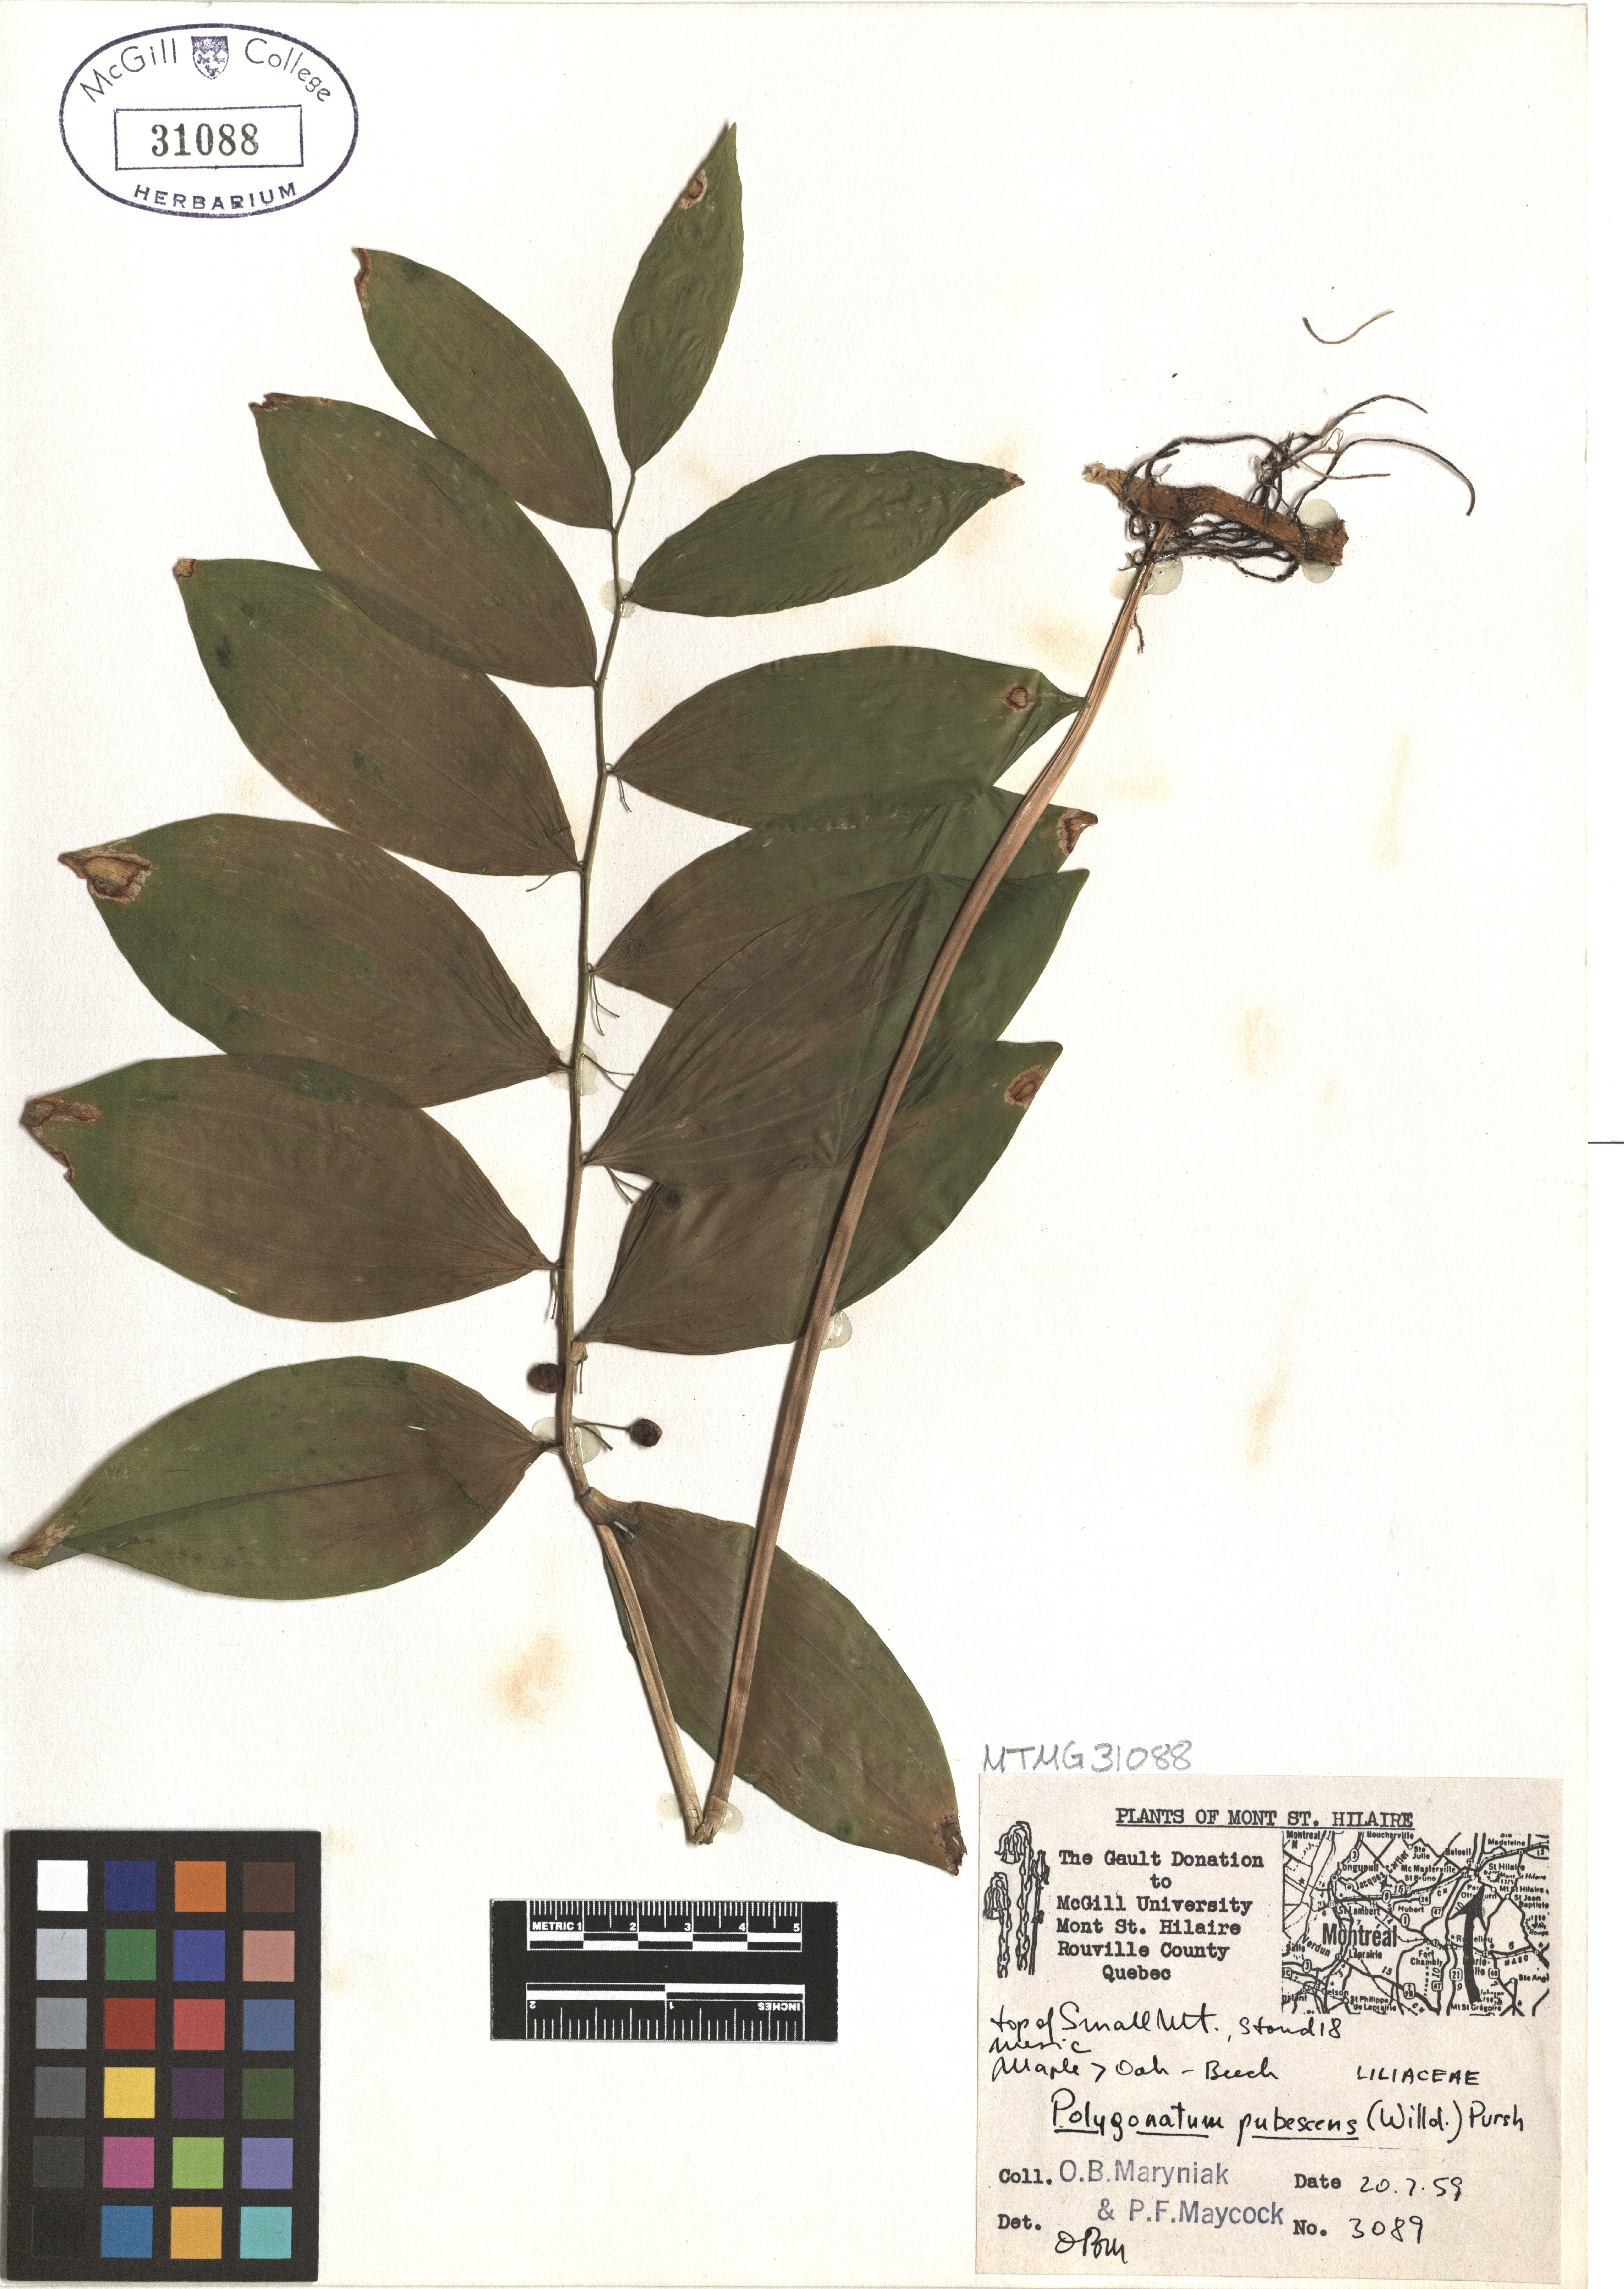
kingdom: Plantae
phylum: Tracheophyta
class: Liliopsida
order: Asparagales
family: Asparagaceae
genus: Polygonatum
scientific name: Polygonatum pubescens
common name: Downy solomon's seal
